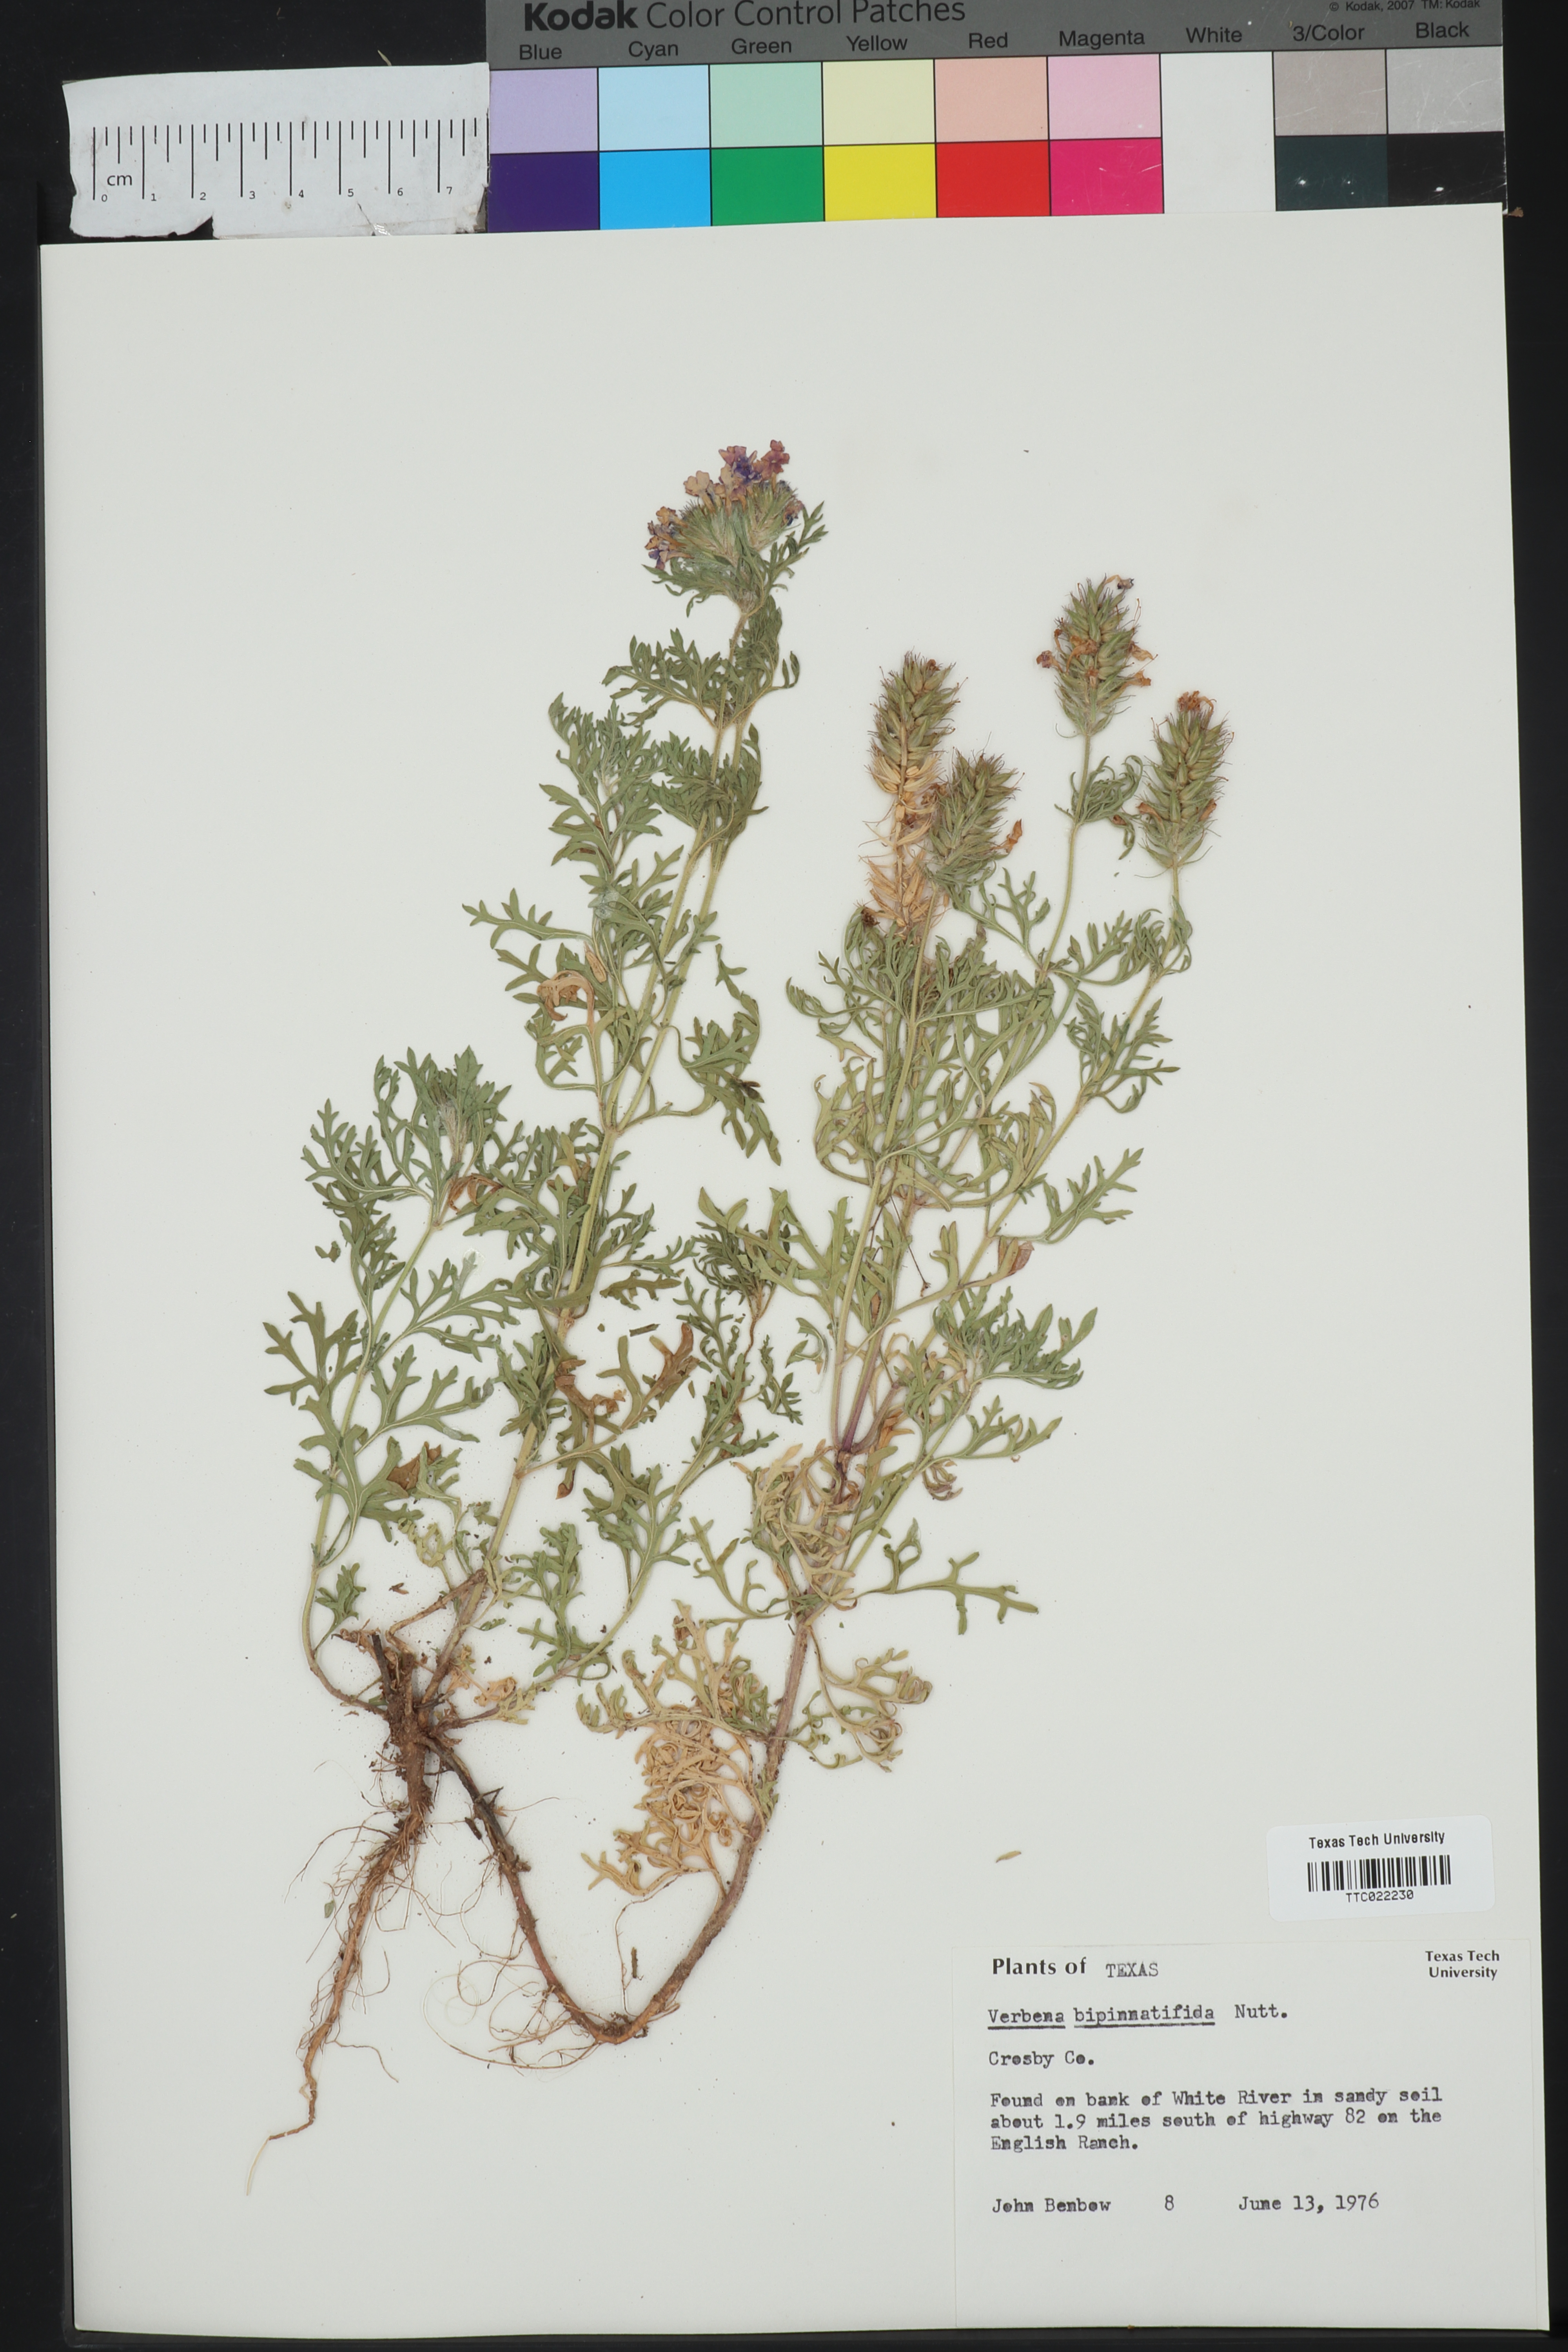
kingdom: Plantae
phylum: Tracheophyta
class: Magnoliopsida
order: Lamiales
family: Verbenaceae
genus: Verbena
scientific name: Verbena bipinnatifida
